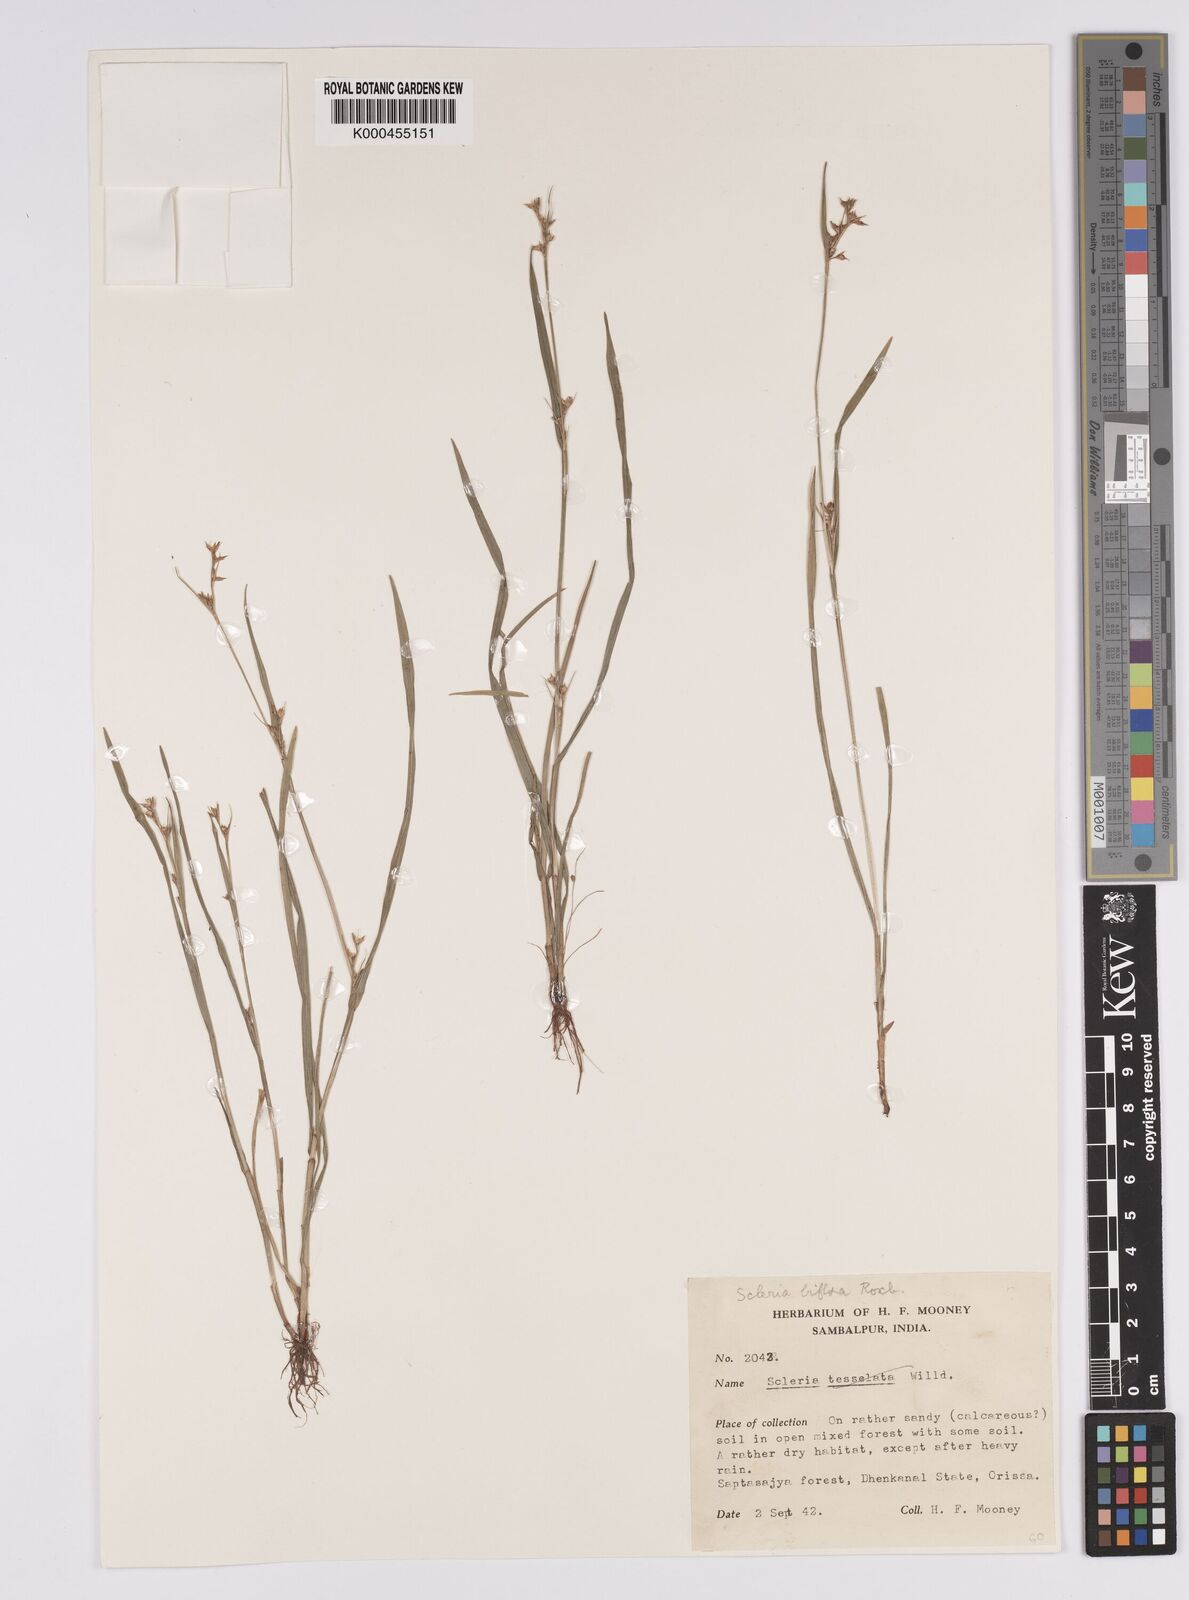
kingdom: Plantae
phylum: Tracheophyta
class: Liliopsida
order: Poales
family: Cyperaceae
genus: Scleria
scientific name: Scleria biflora
